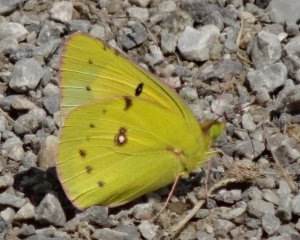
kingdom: Animalia
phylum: Arthropoda
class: Insecta
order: Lepidoptera
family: Pieridae
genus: Colias
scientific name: Colias eurytheme
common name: Orange Sulphur
